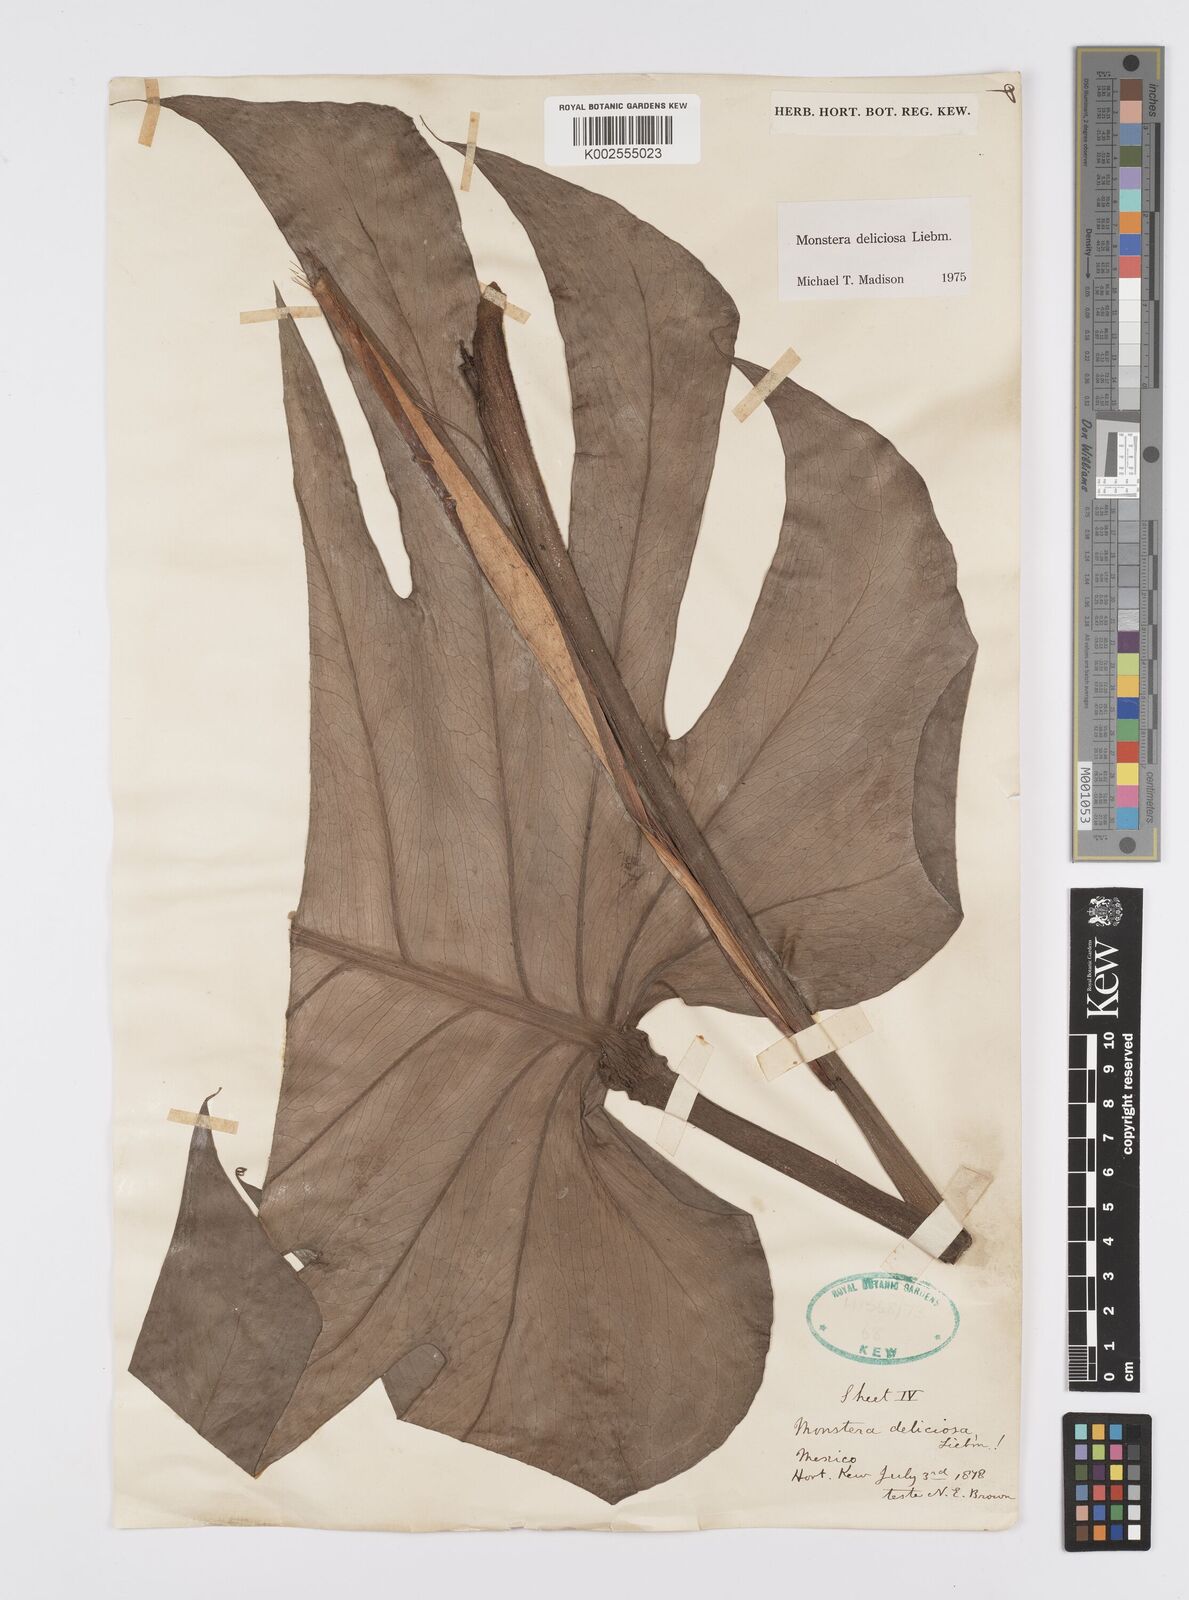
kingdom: Plantae
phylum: Tracheophyta
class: Liliopsida
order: Alismatales
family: Araceae
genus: Monstera
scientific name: Monstera deliciosa
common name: Cut-leaf-philodendron
